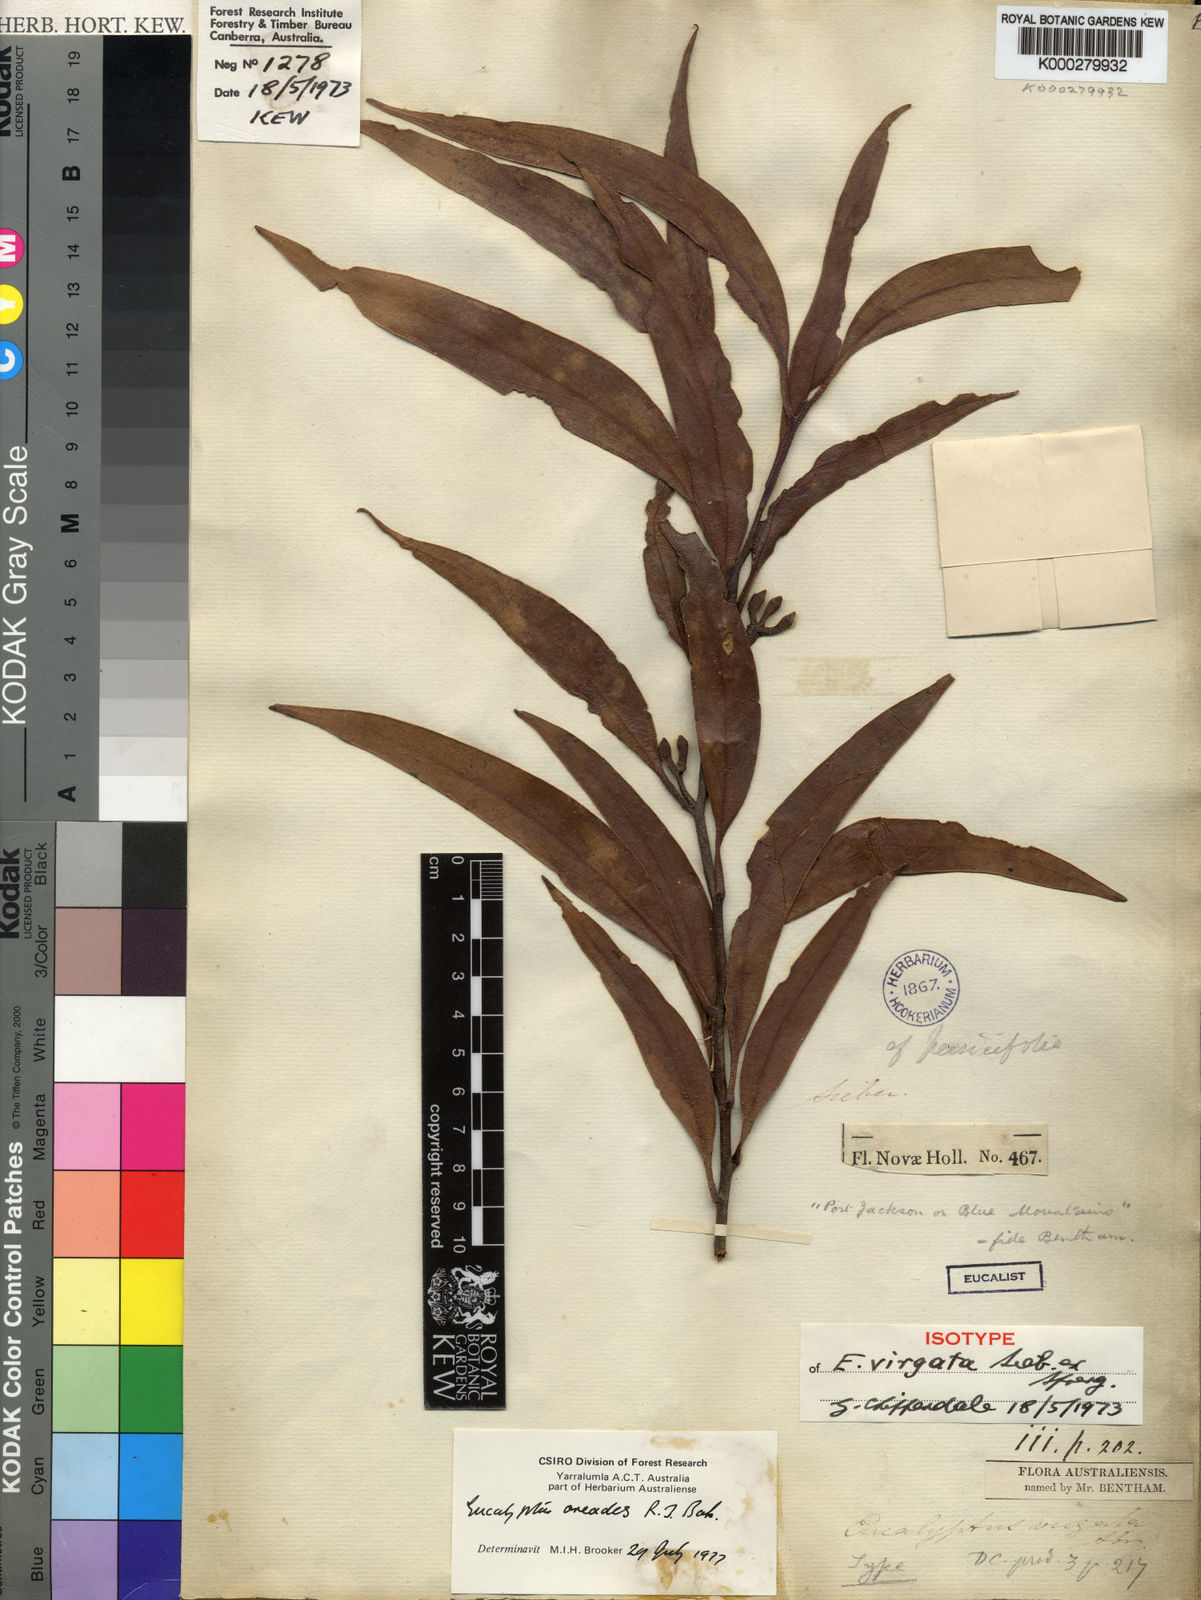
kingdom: Plantae
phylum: Tracheophyta
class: Magnoliopsida
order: Myrtales
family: Myrtaceae
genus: Eucalyptus
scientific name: Eucalyptus oreades
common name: White-ash
